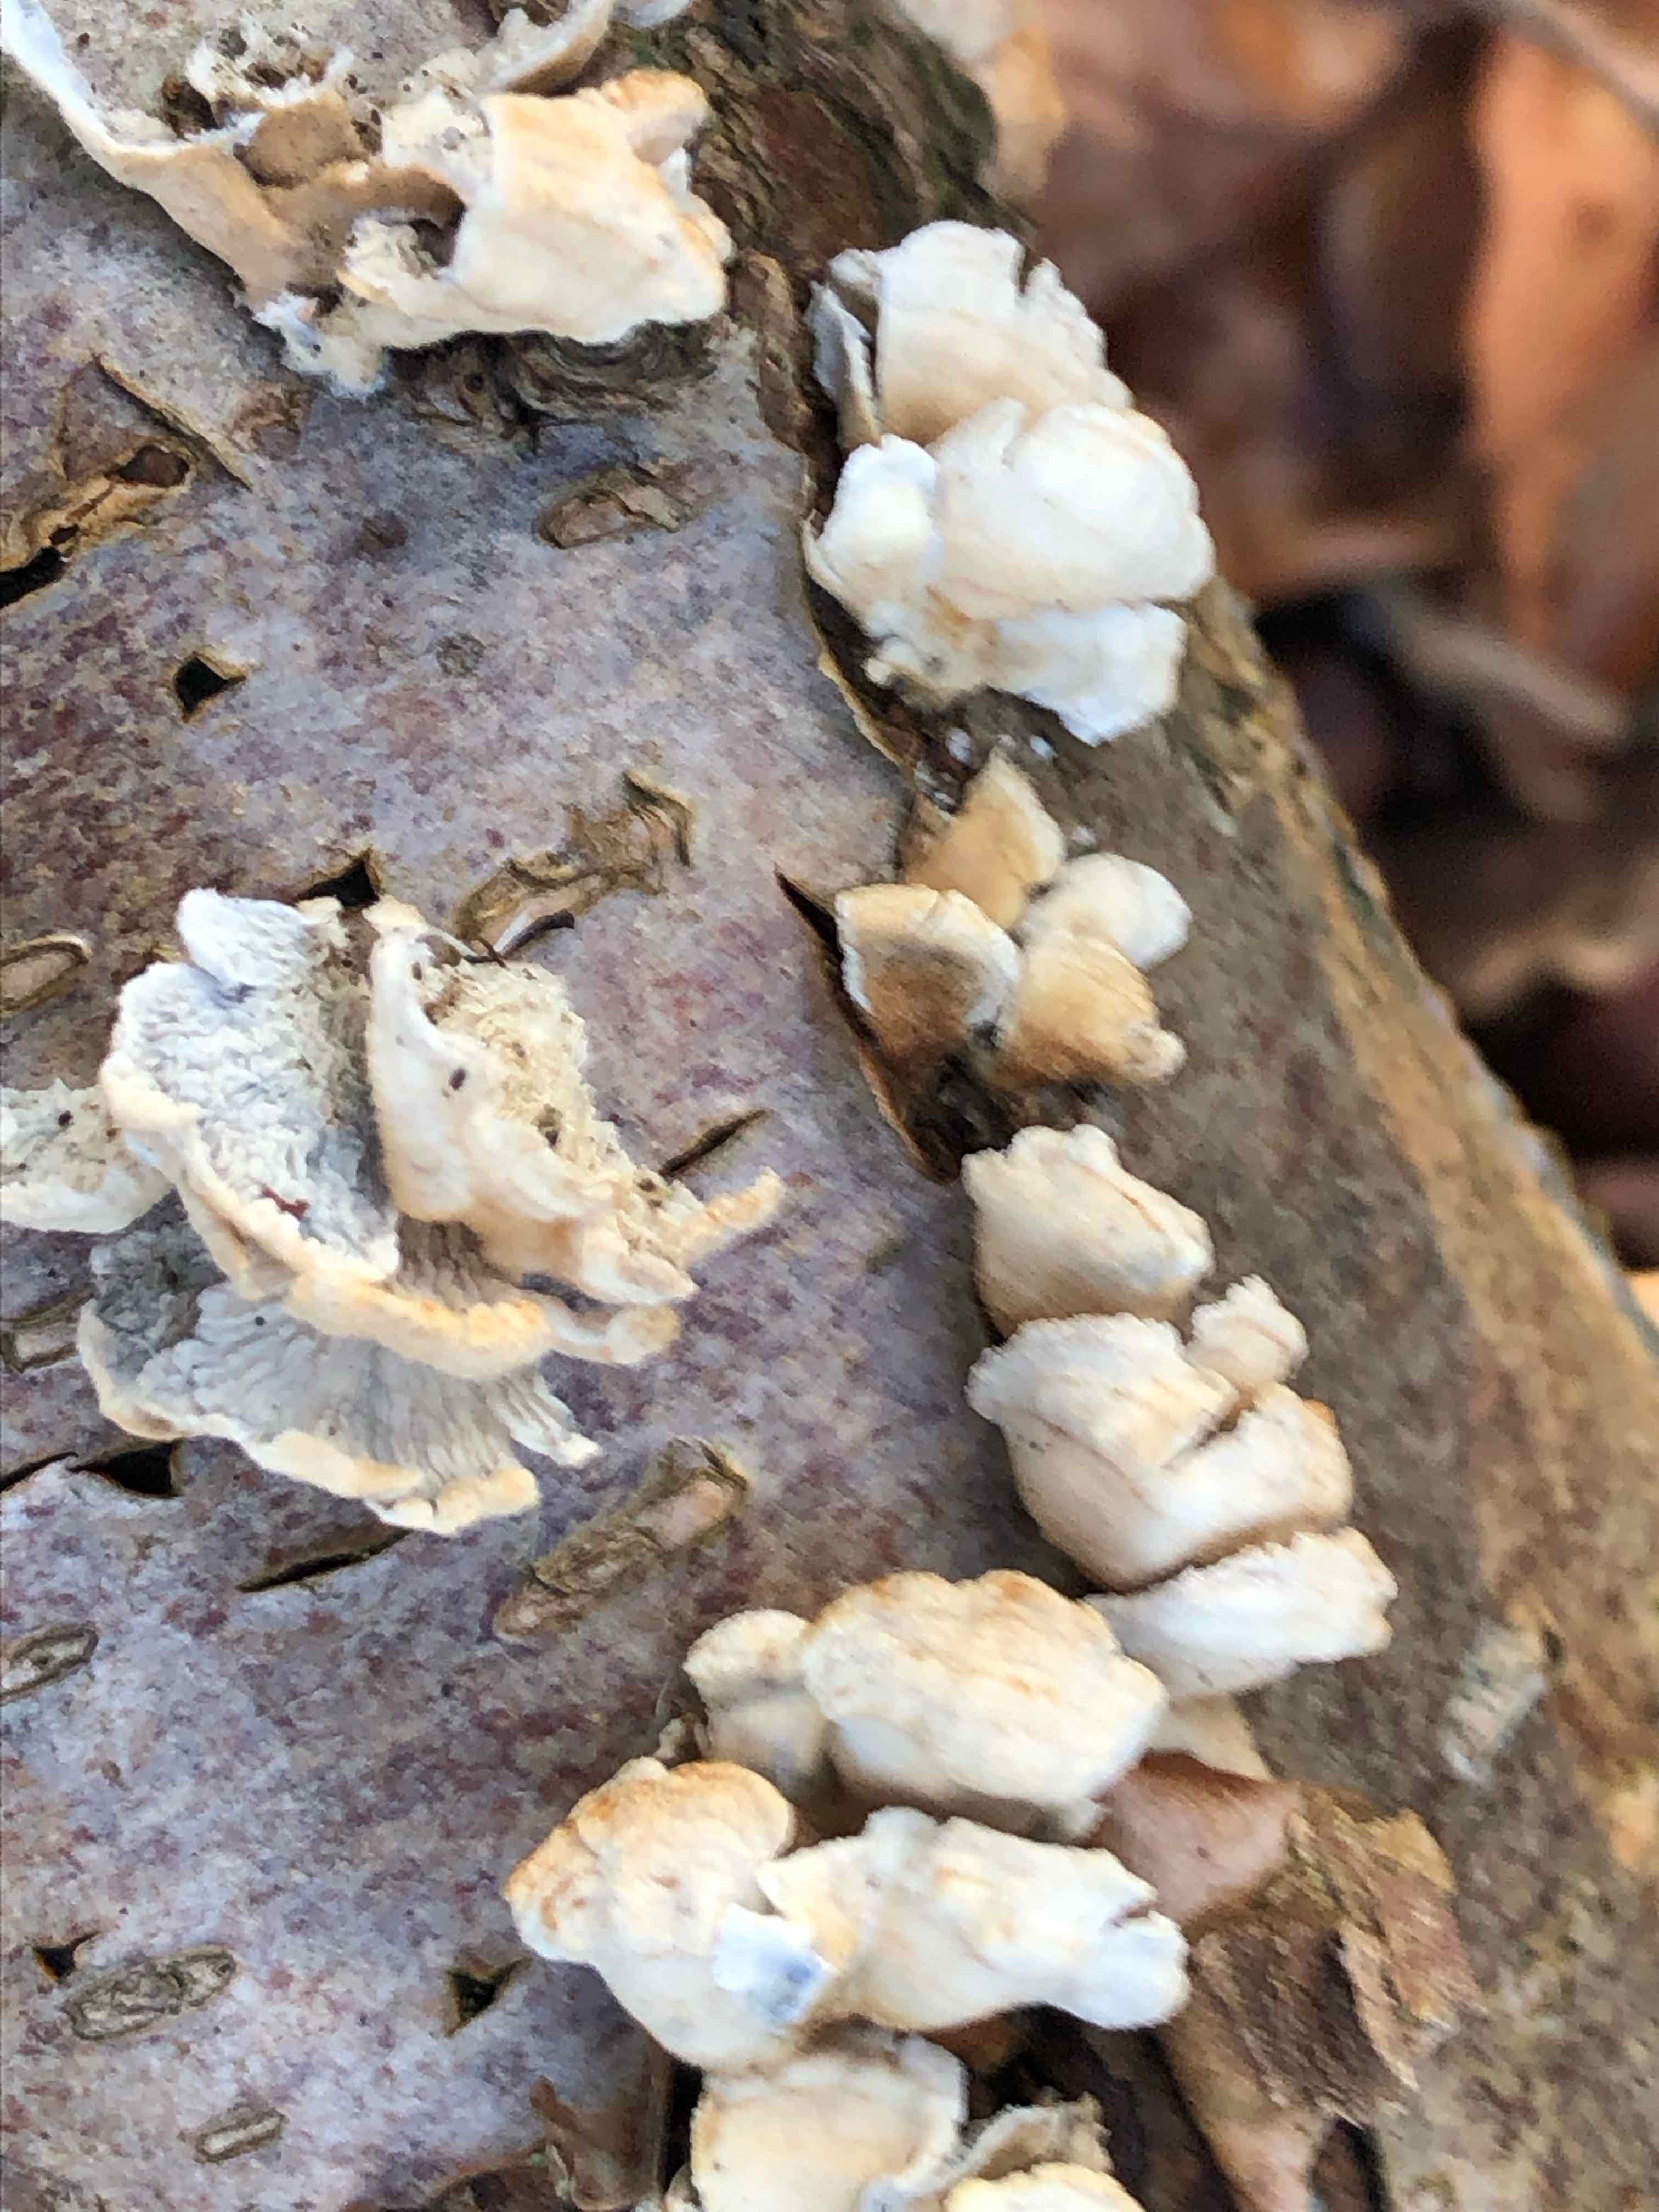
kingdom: Fungi
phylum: Basidiomycota
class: Agaricomycetes
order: Amylocorticiales
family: Amylocorticiaceae
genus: Plicaturopsis
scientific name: Plicaturopsis crispa
